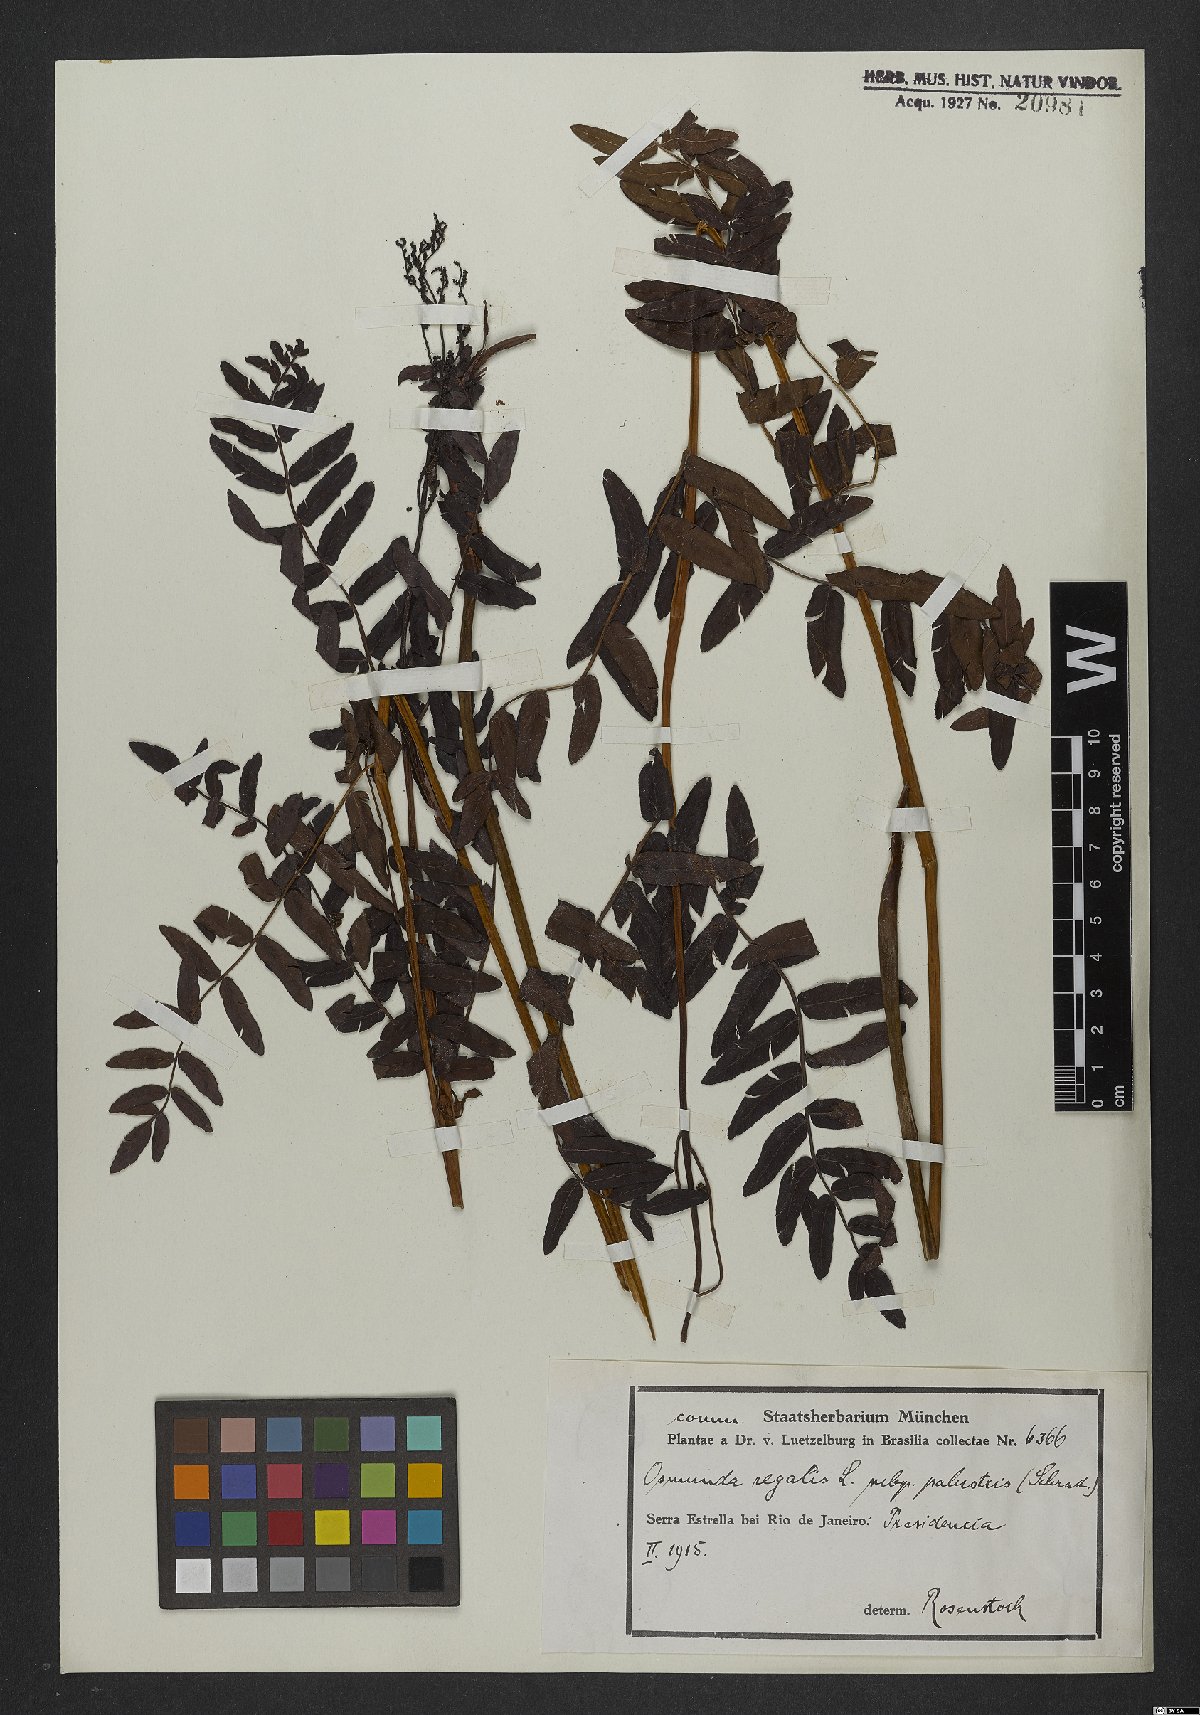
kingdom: Plantae
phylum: Tracheophyta
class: Polypodiopsida
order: Osmundales
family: Osmundaceae
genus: Osmunda
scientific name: Osmunda regalis
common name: Royal fern
